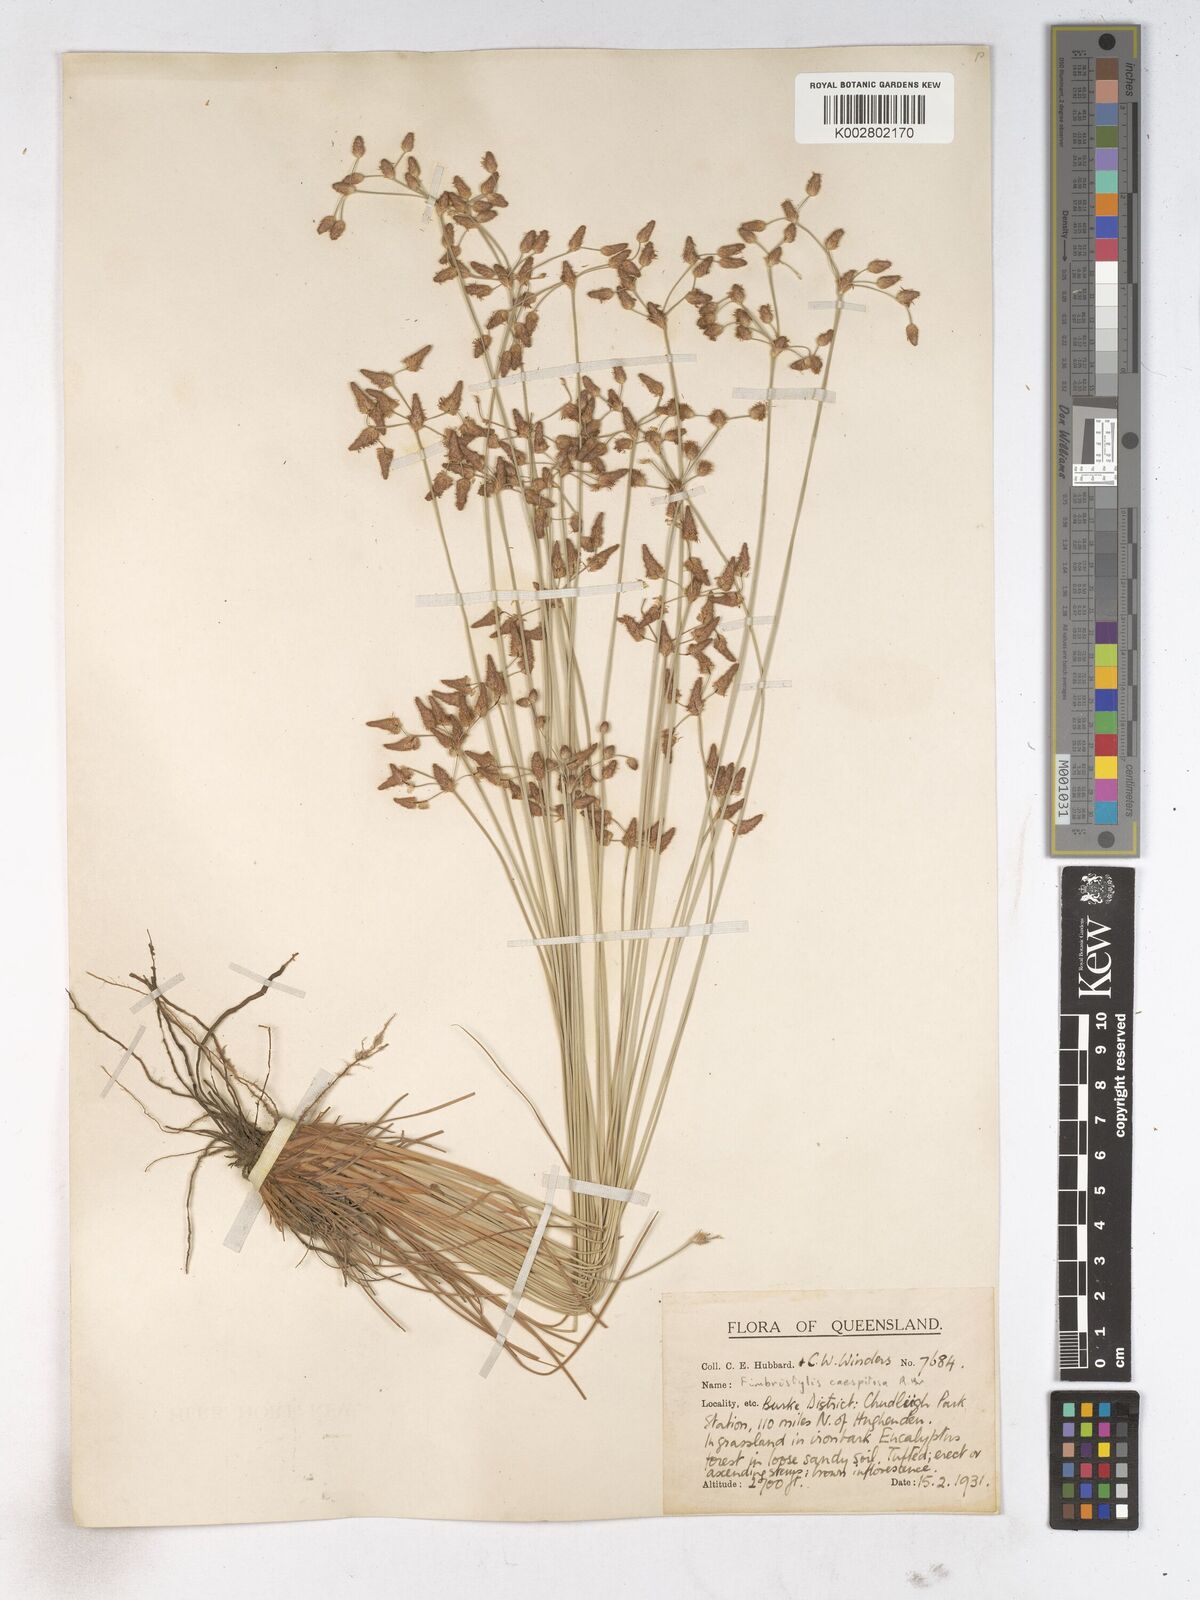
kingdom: Plantae
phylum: Tracheophyta
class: Liliopsida
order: Poales
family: Cyperaceae
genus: Fimbristylis
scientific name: Fimbristylis caespitosa
